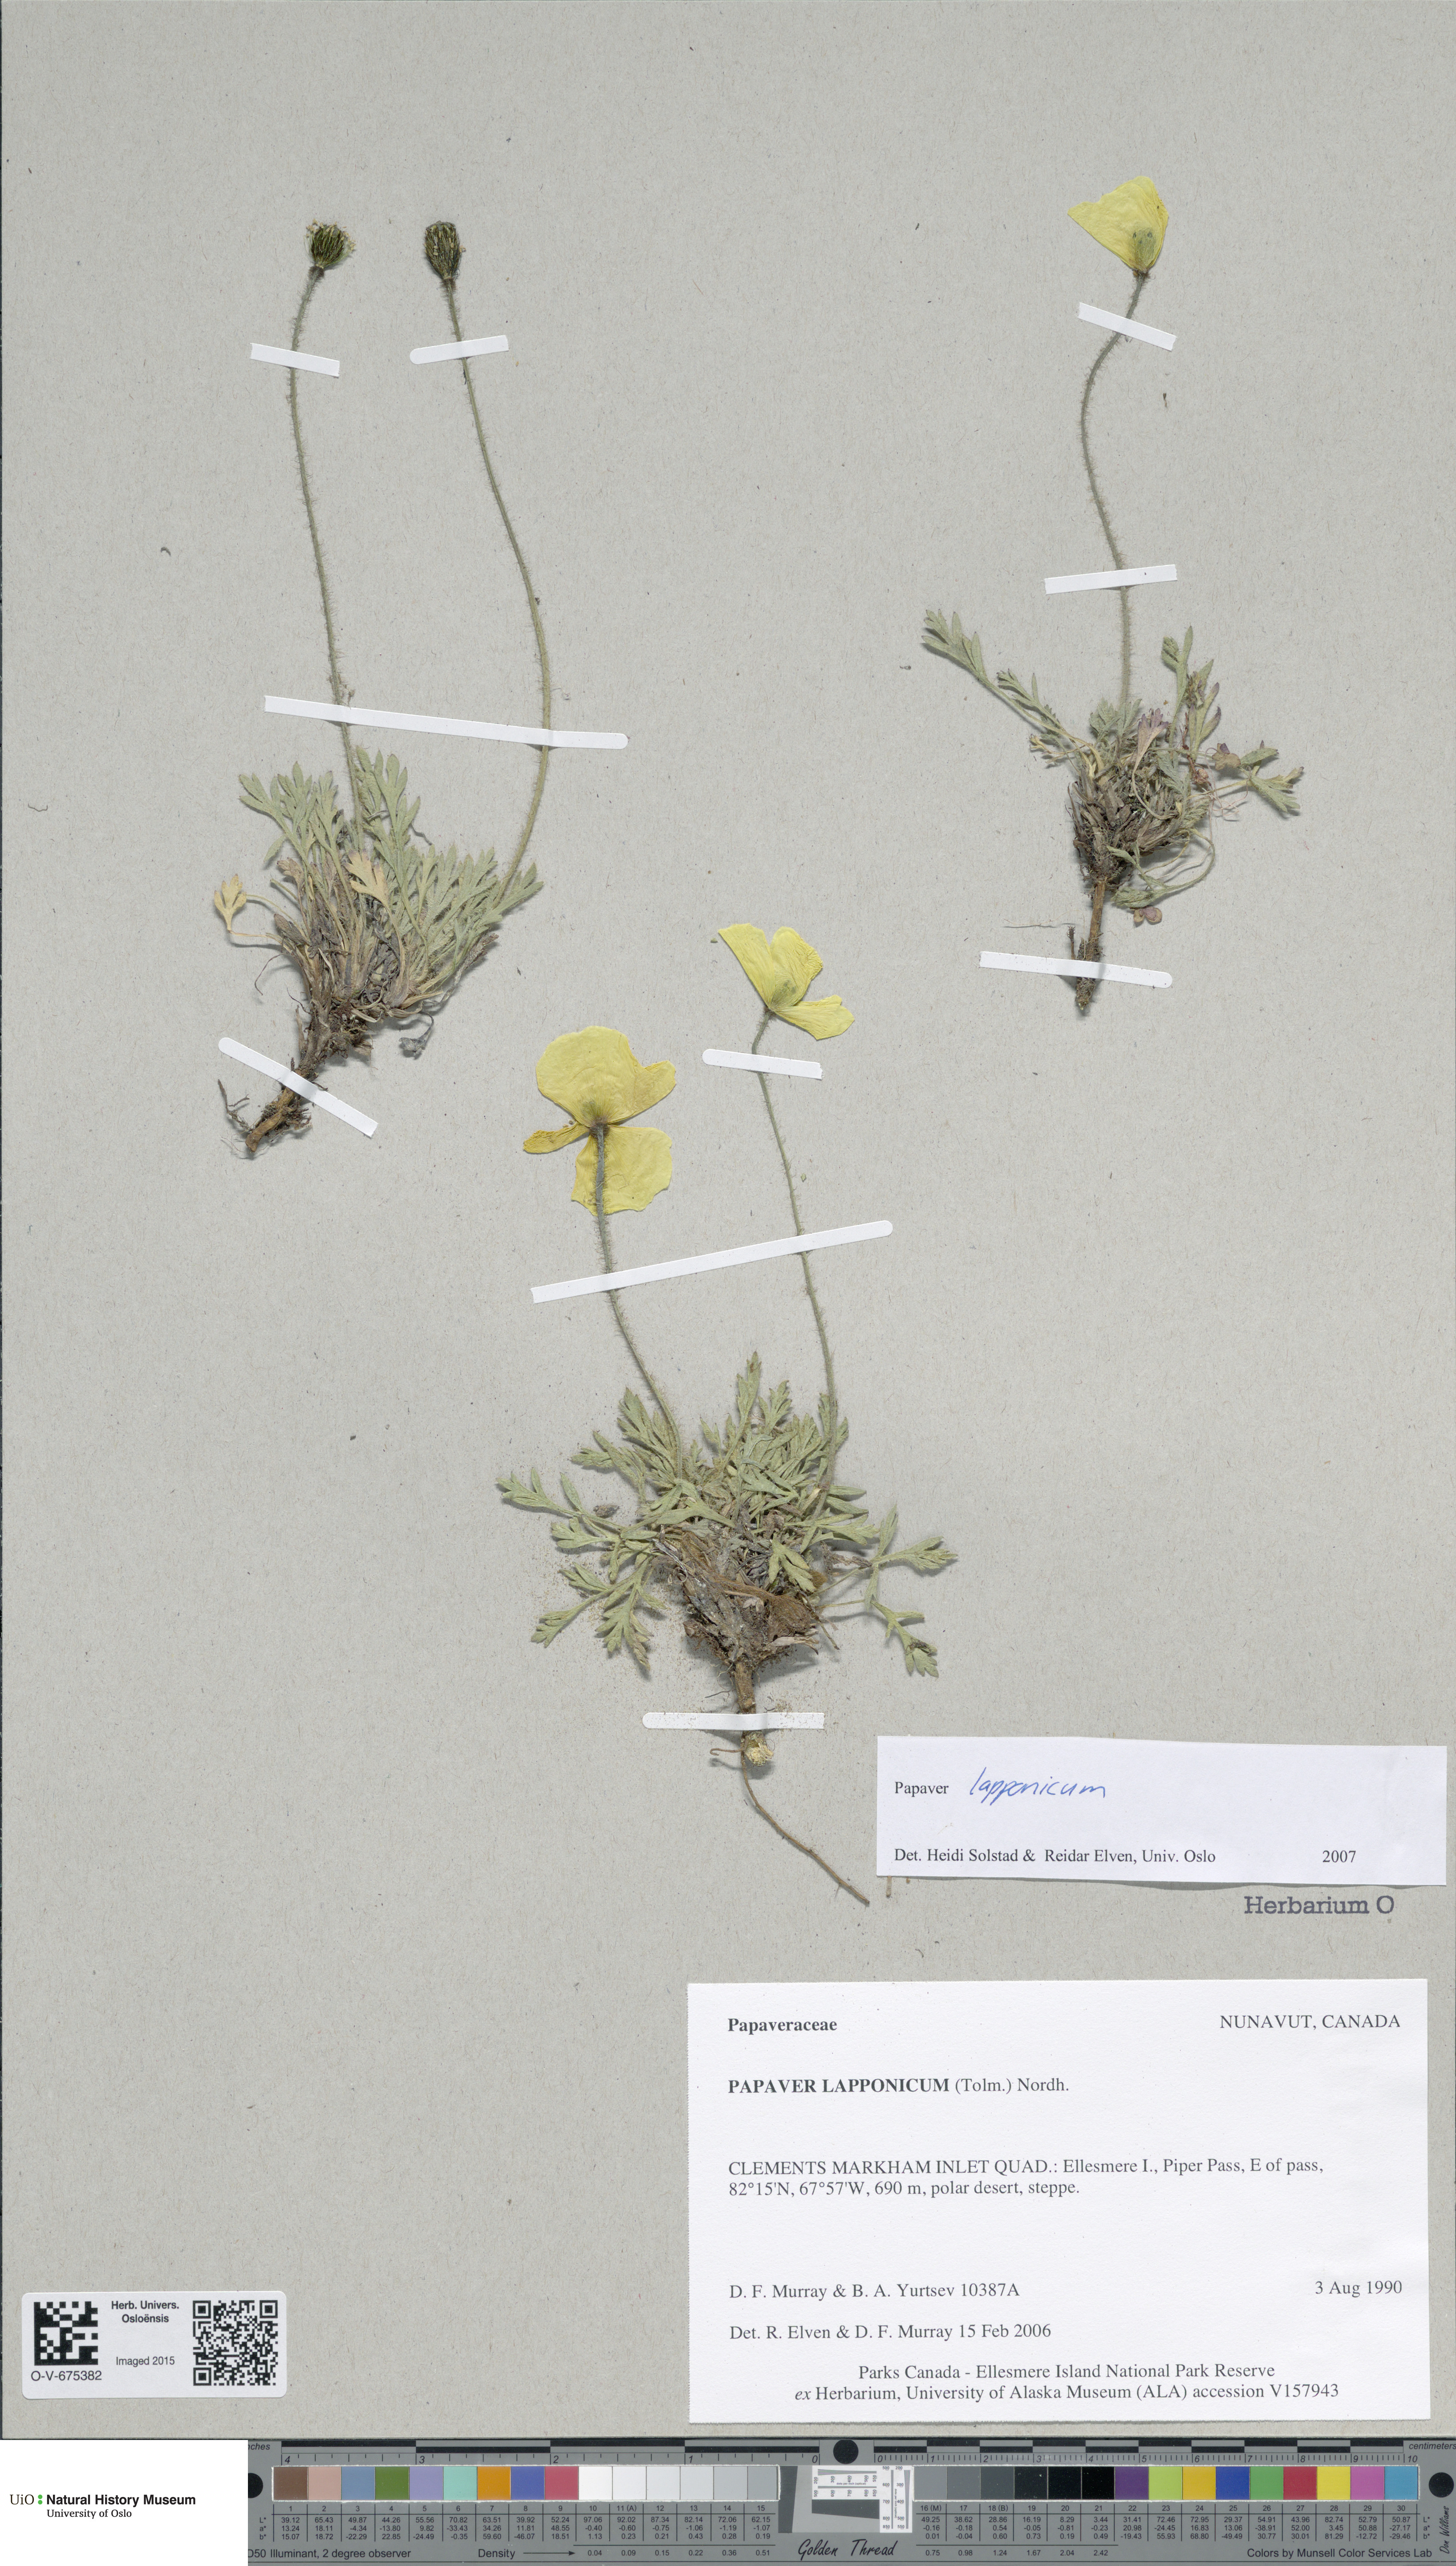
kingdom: Plantae
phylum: Tracheophyta
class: Magnoliopsida
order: Ranunculales
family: Papaveraceae
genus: Papaver
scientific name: Papaver lapponicum
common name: Lapland poppy
